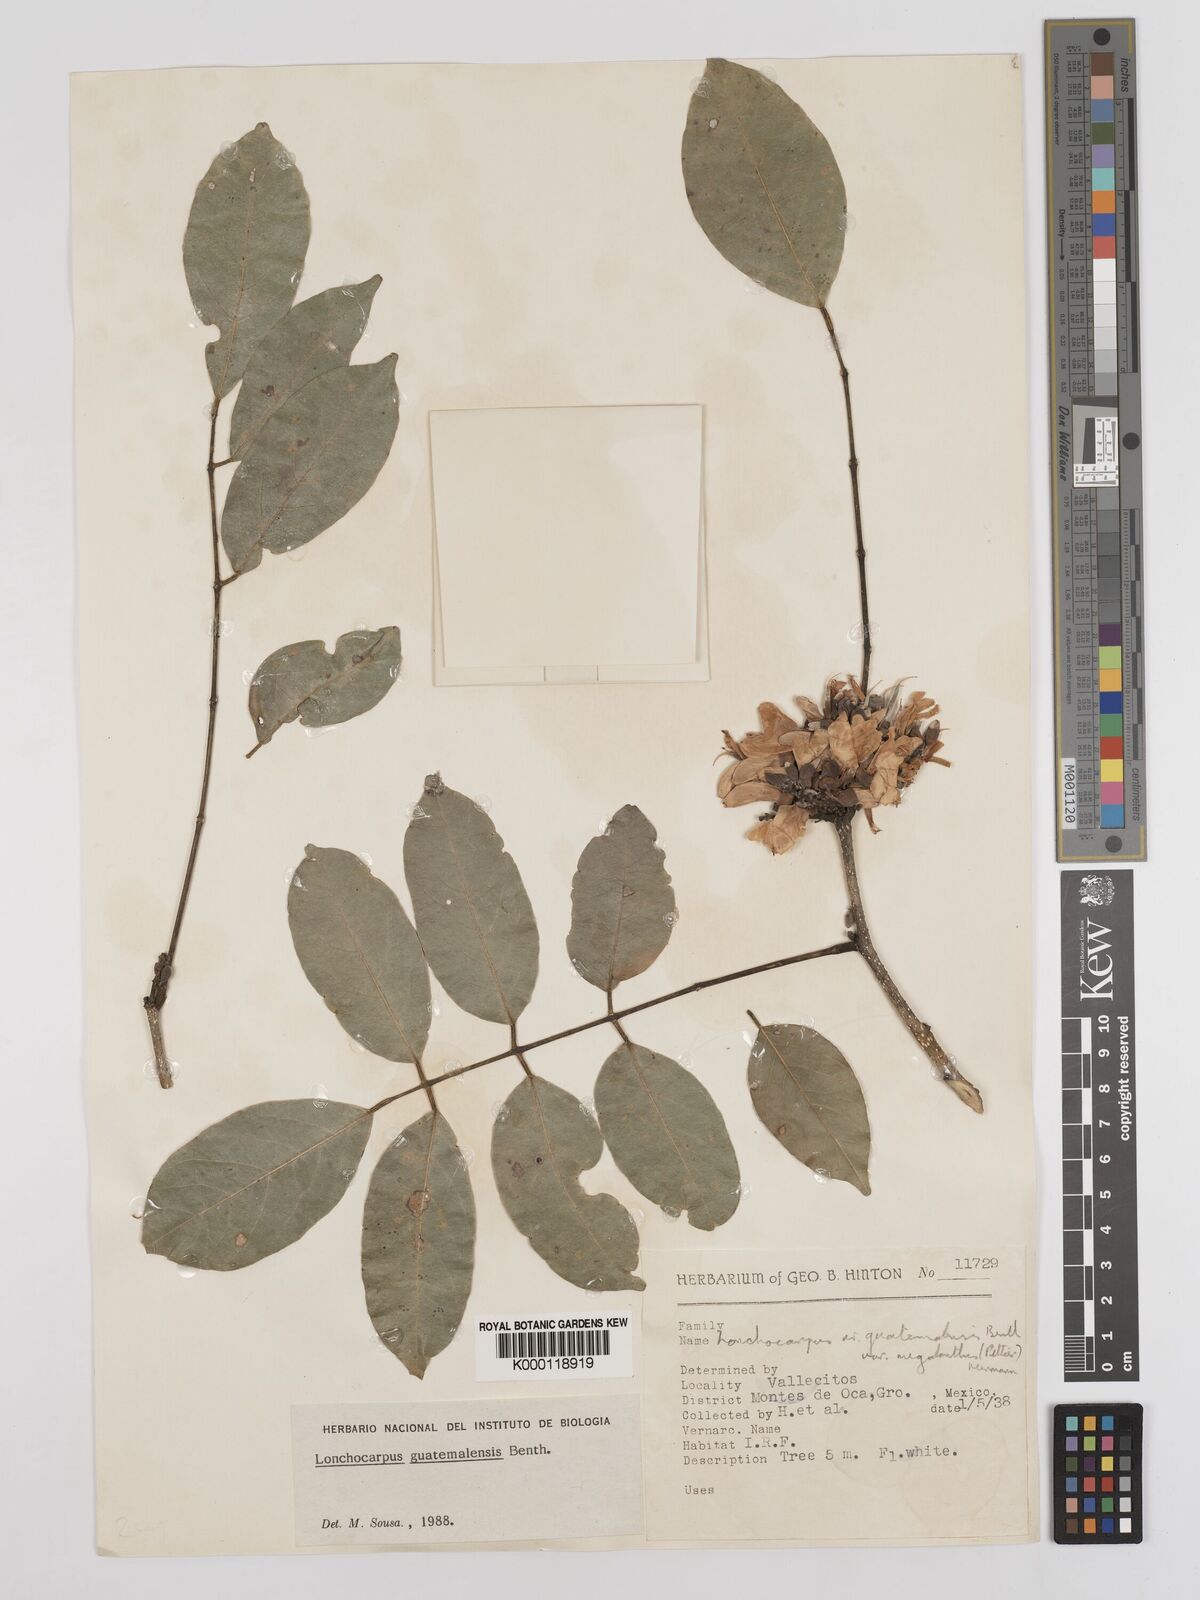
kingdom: Plantae
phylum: Tracheophyta
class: Magnoliopsida
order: Fabales
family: Fabaceae
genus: Lonchocarpus
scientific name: Lonchocarpus guatemalensis
